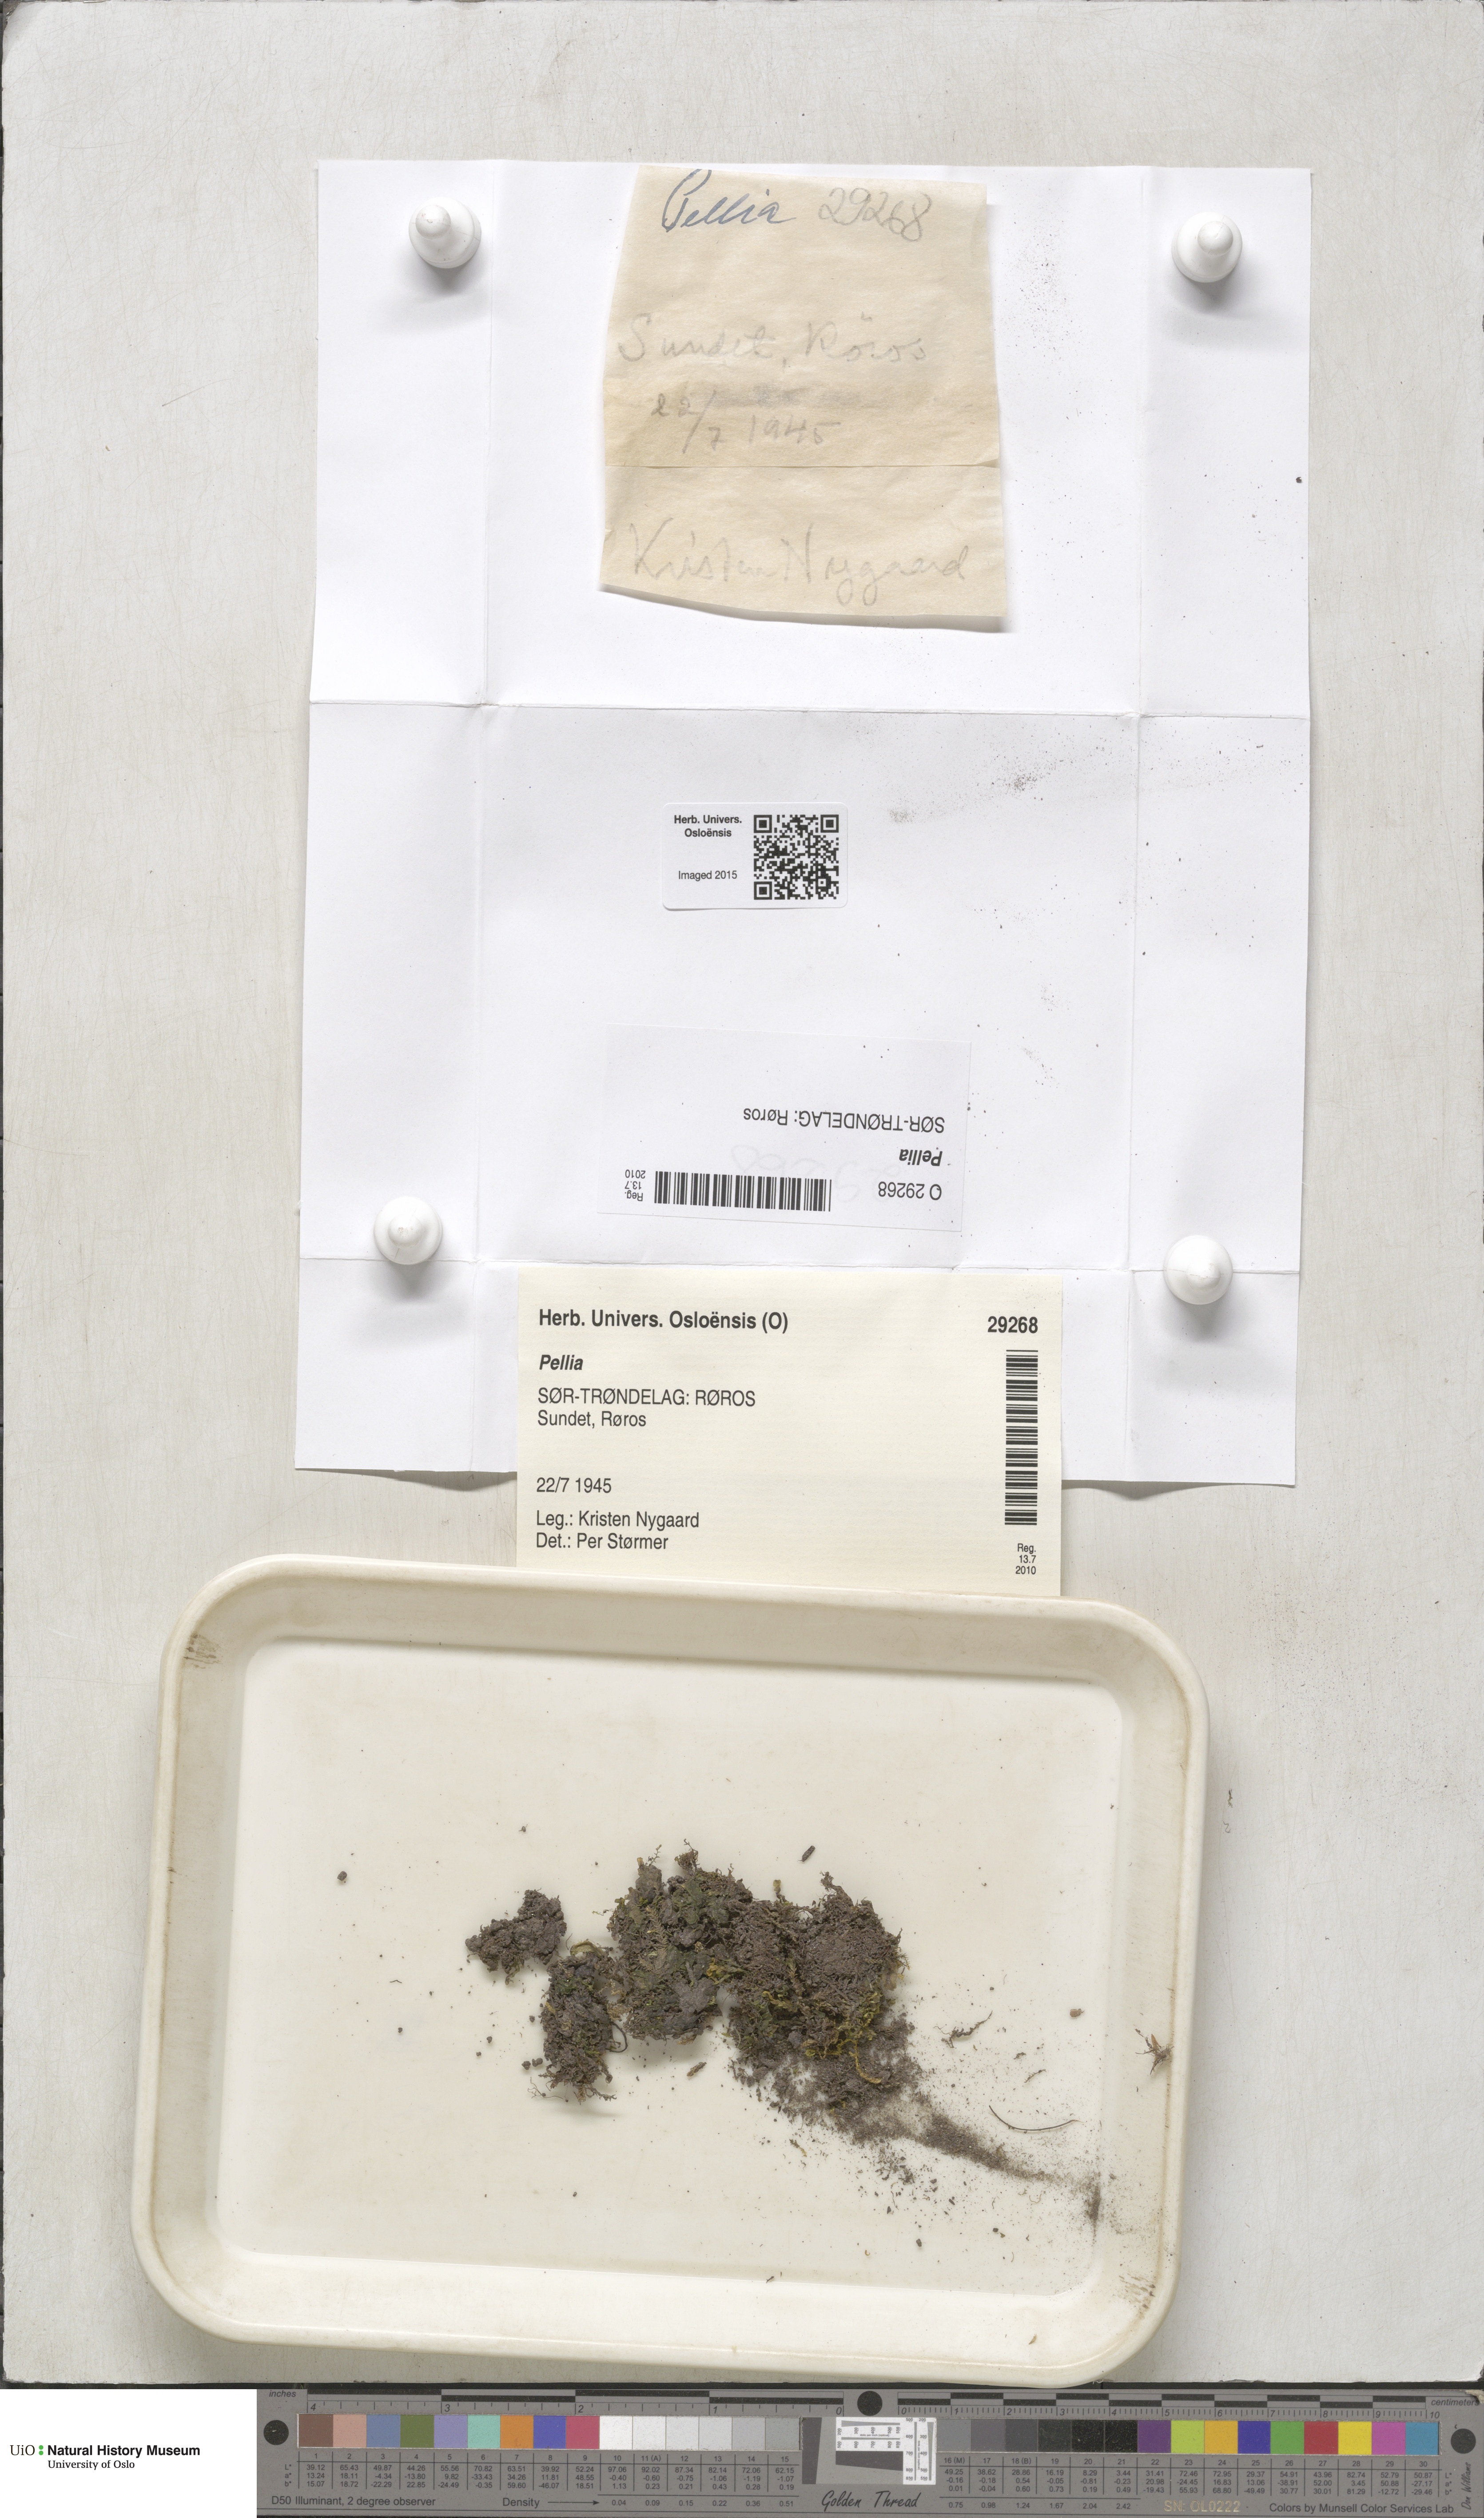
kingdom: Plantae
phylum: Marchantiophyta
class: Jungermanniopsida
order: Pelliales
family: Pelliaceae
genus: Pellia
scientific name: Pellia
